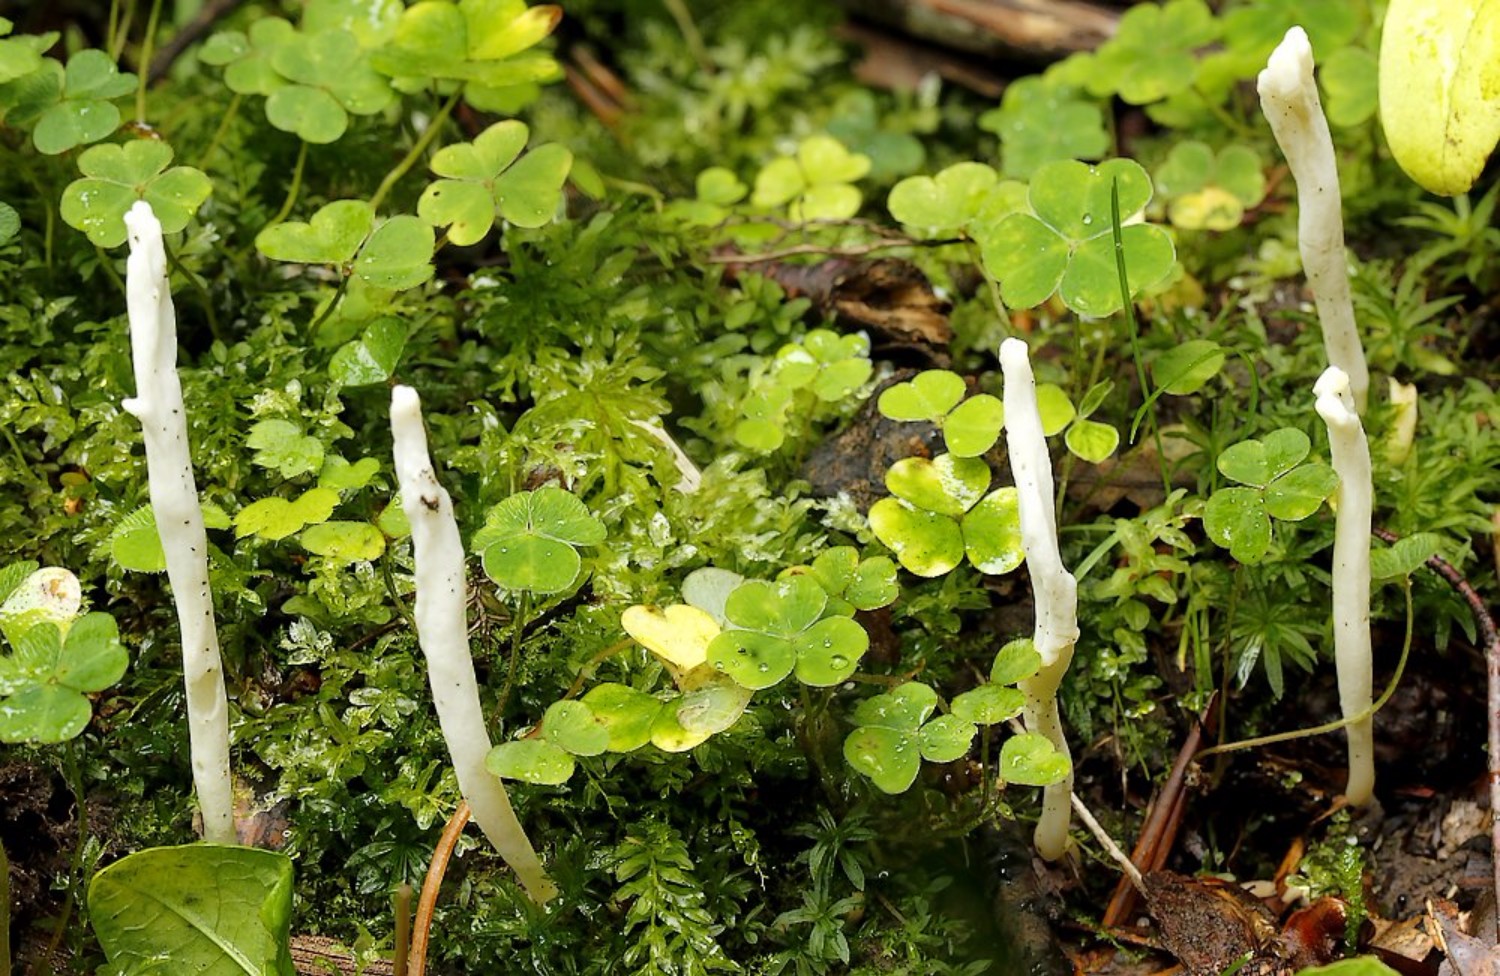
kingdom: Fungi
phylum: Basidiomycota
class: Agaricomycetes
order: Agaricales
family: Clavariaceae
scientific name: Clavariaceae
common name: køllesvampfamilien
